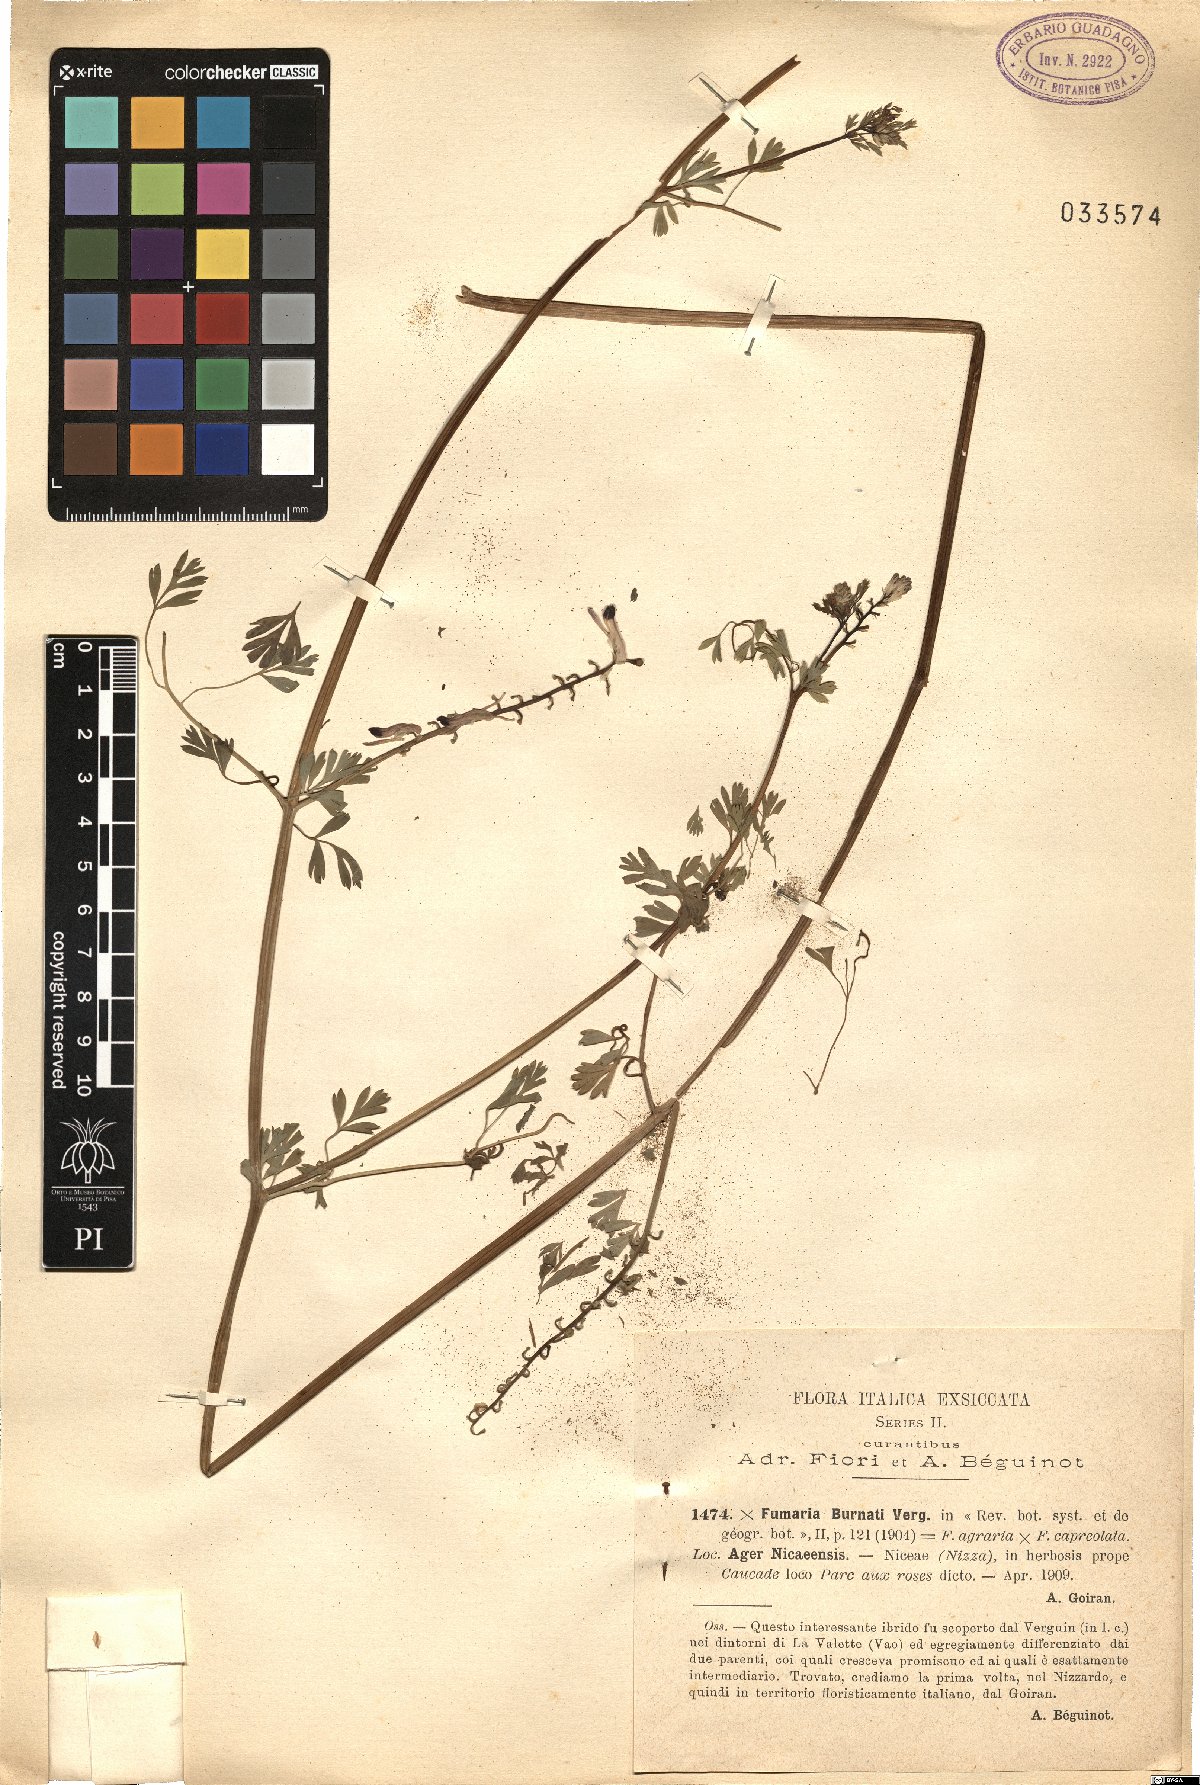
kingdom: Plantae
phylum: Tracheophyta
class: Magnoliopsida
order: Ranunculales
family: Papaveraceae
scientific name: Papaveraceae
